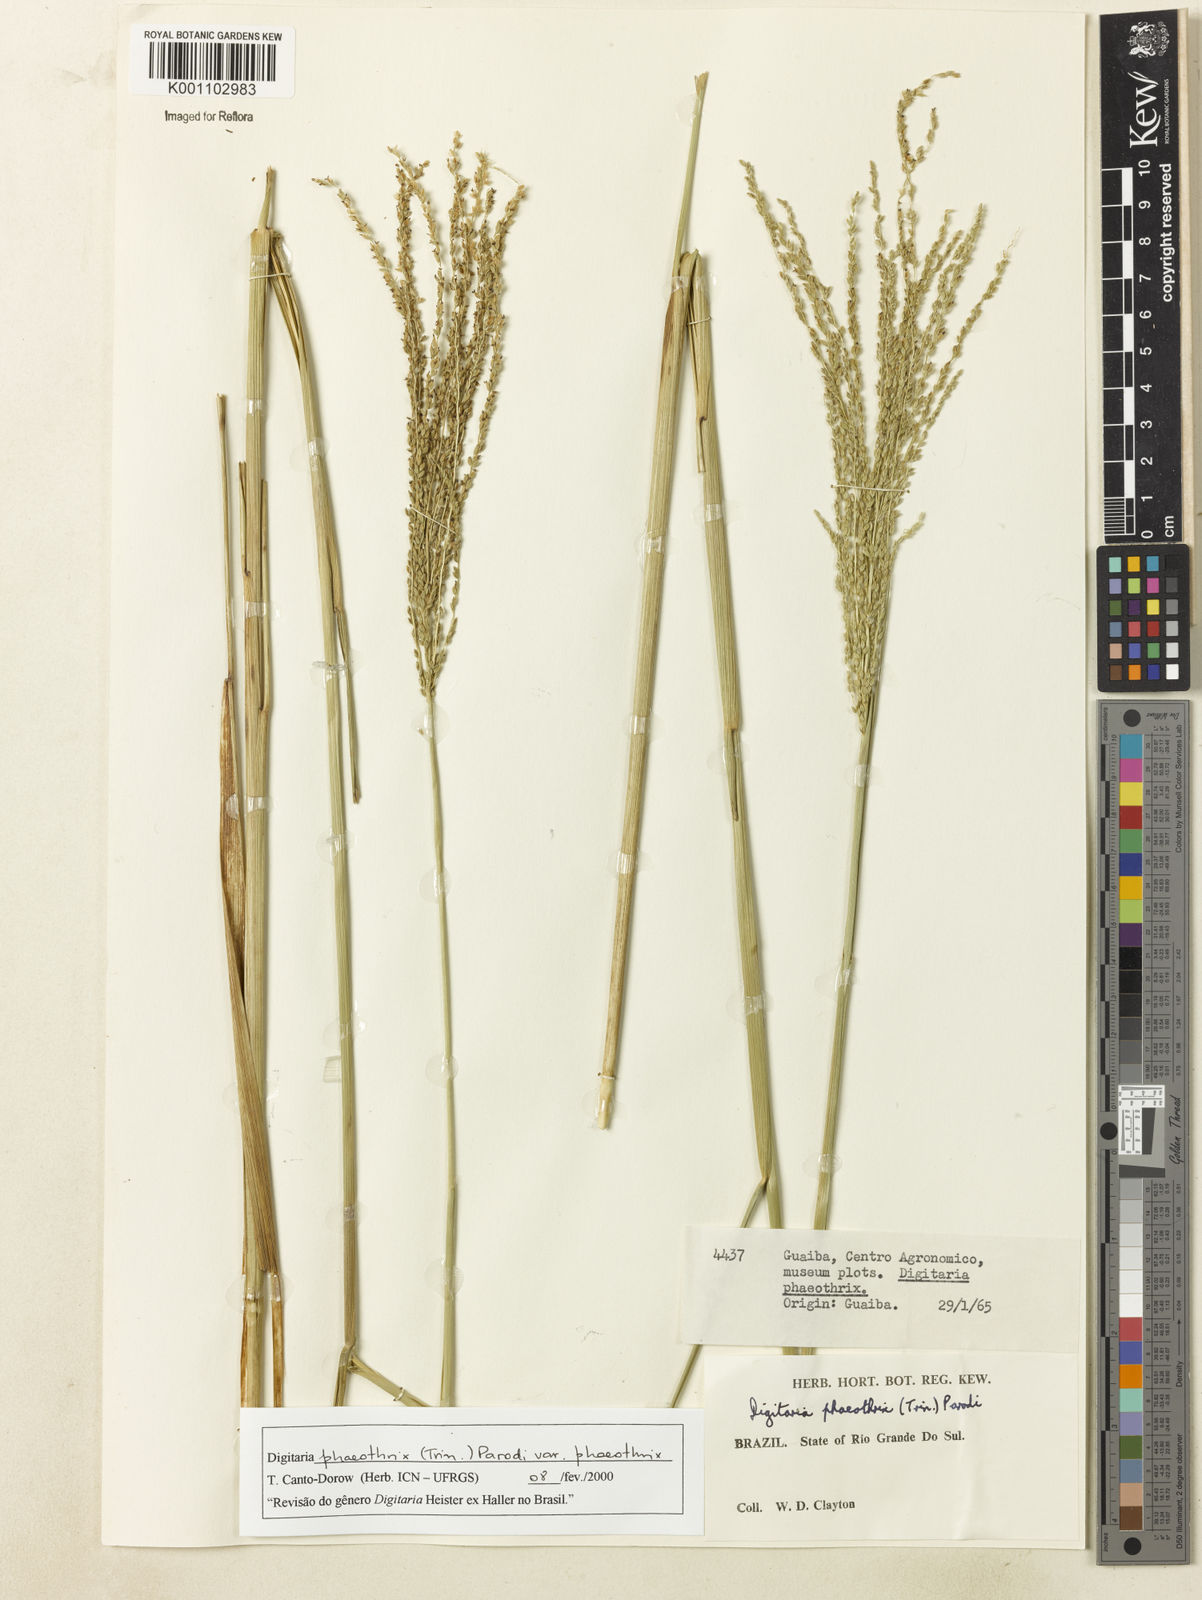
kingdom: Plantae
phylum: Tracheophyta
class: Liliopsida
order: Poales
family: Poaceae
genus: Digitaria
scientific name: Digitaria phaeothrix
